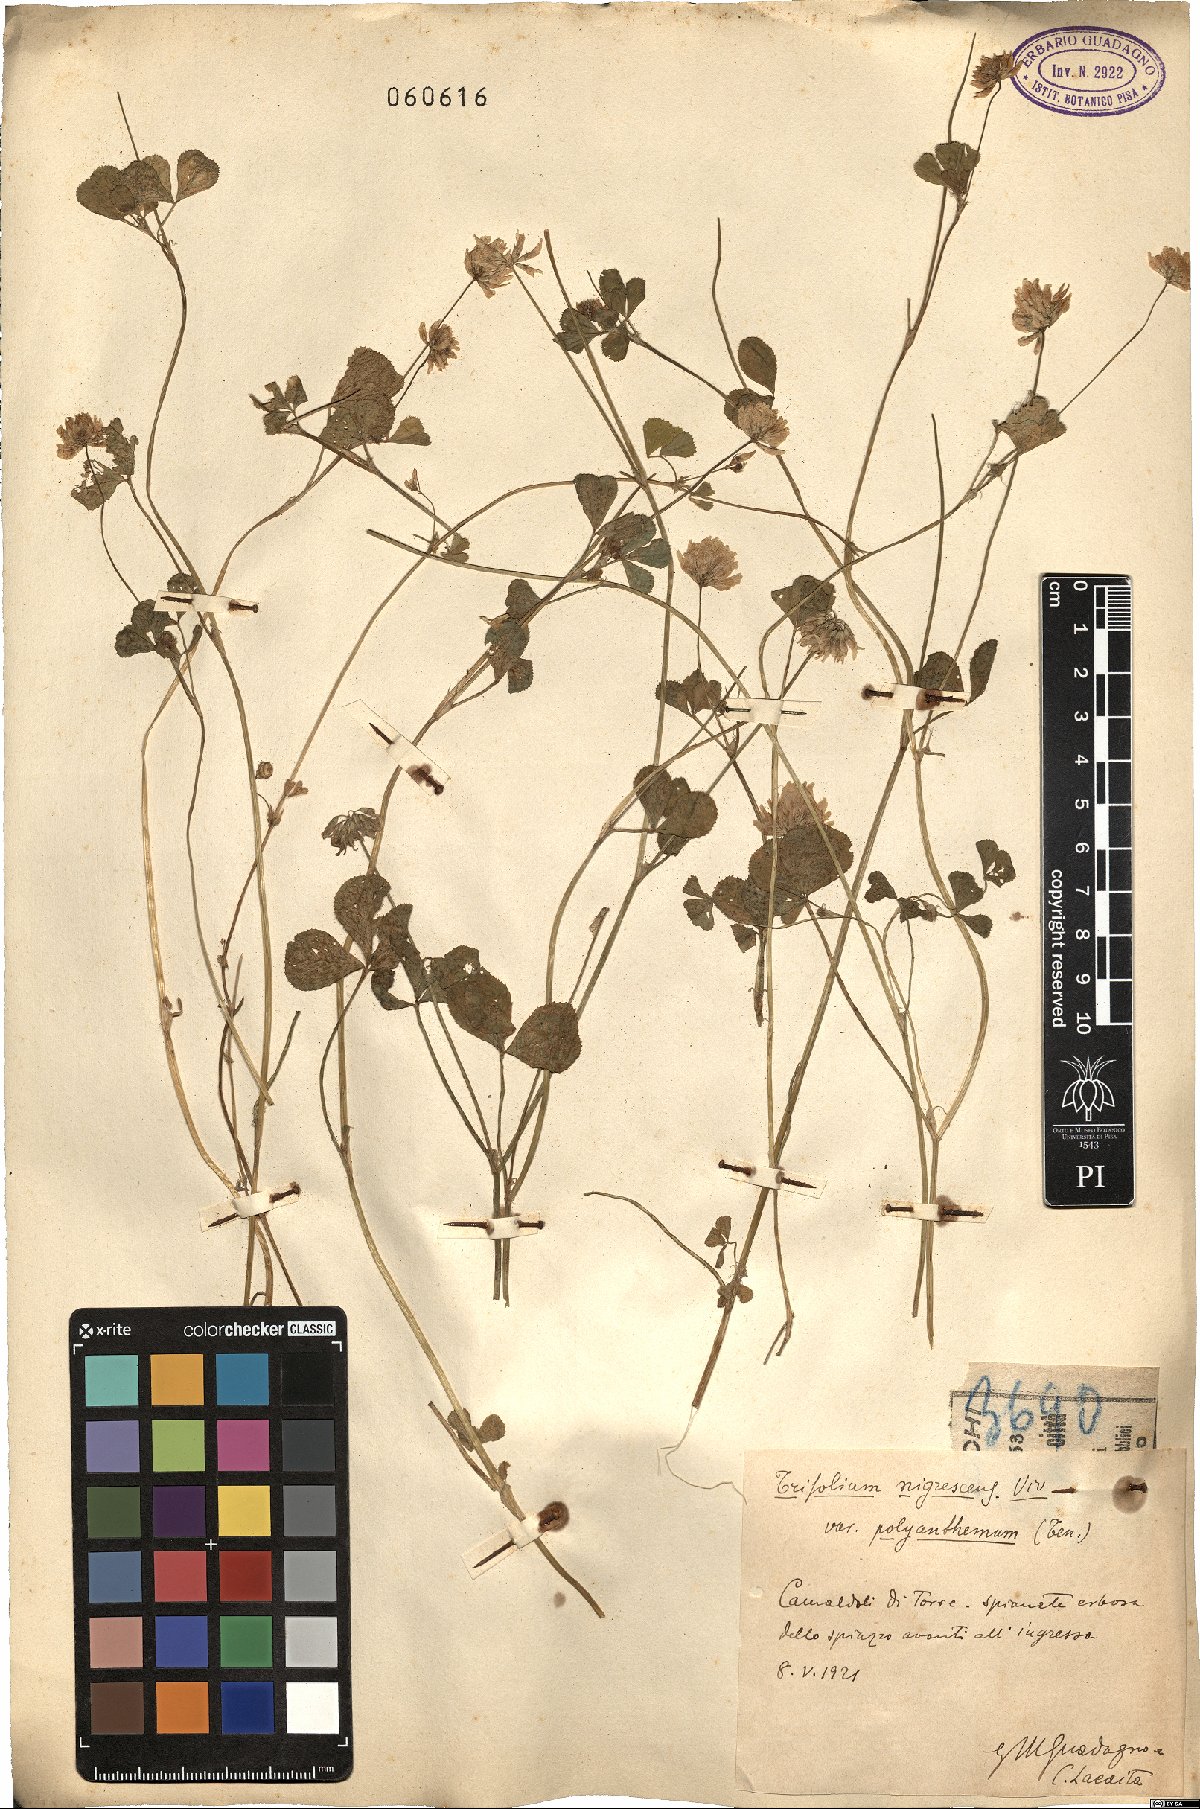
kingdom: Plantae
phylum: Tracheophyta
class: Magnoliopsida
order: Fabales
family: Fabaceae
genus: Trifolium
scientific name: Trifolium nigrescens
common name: Small white clover
